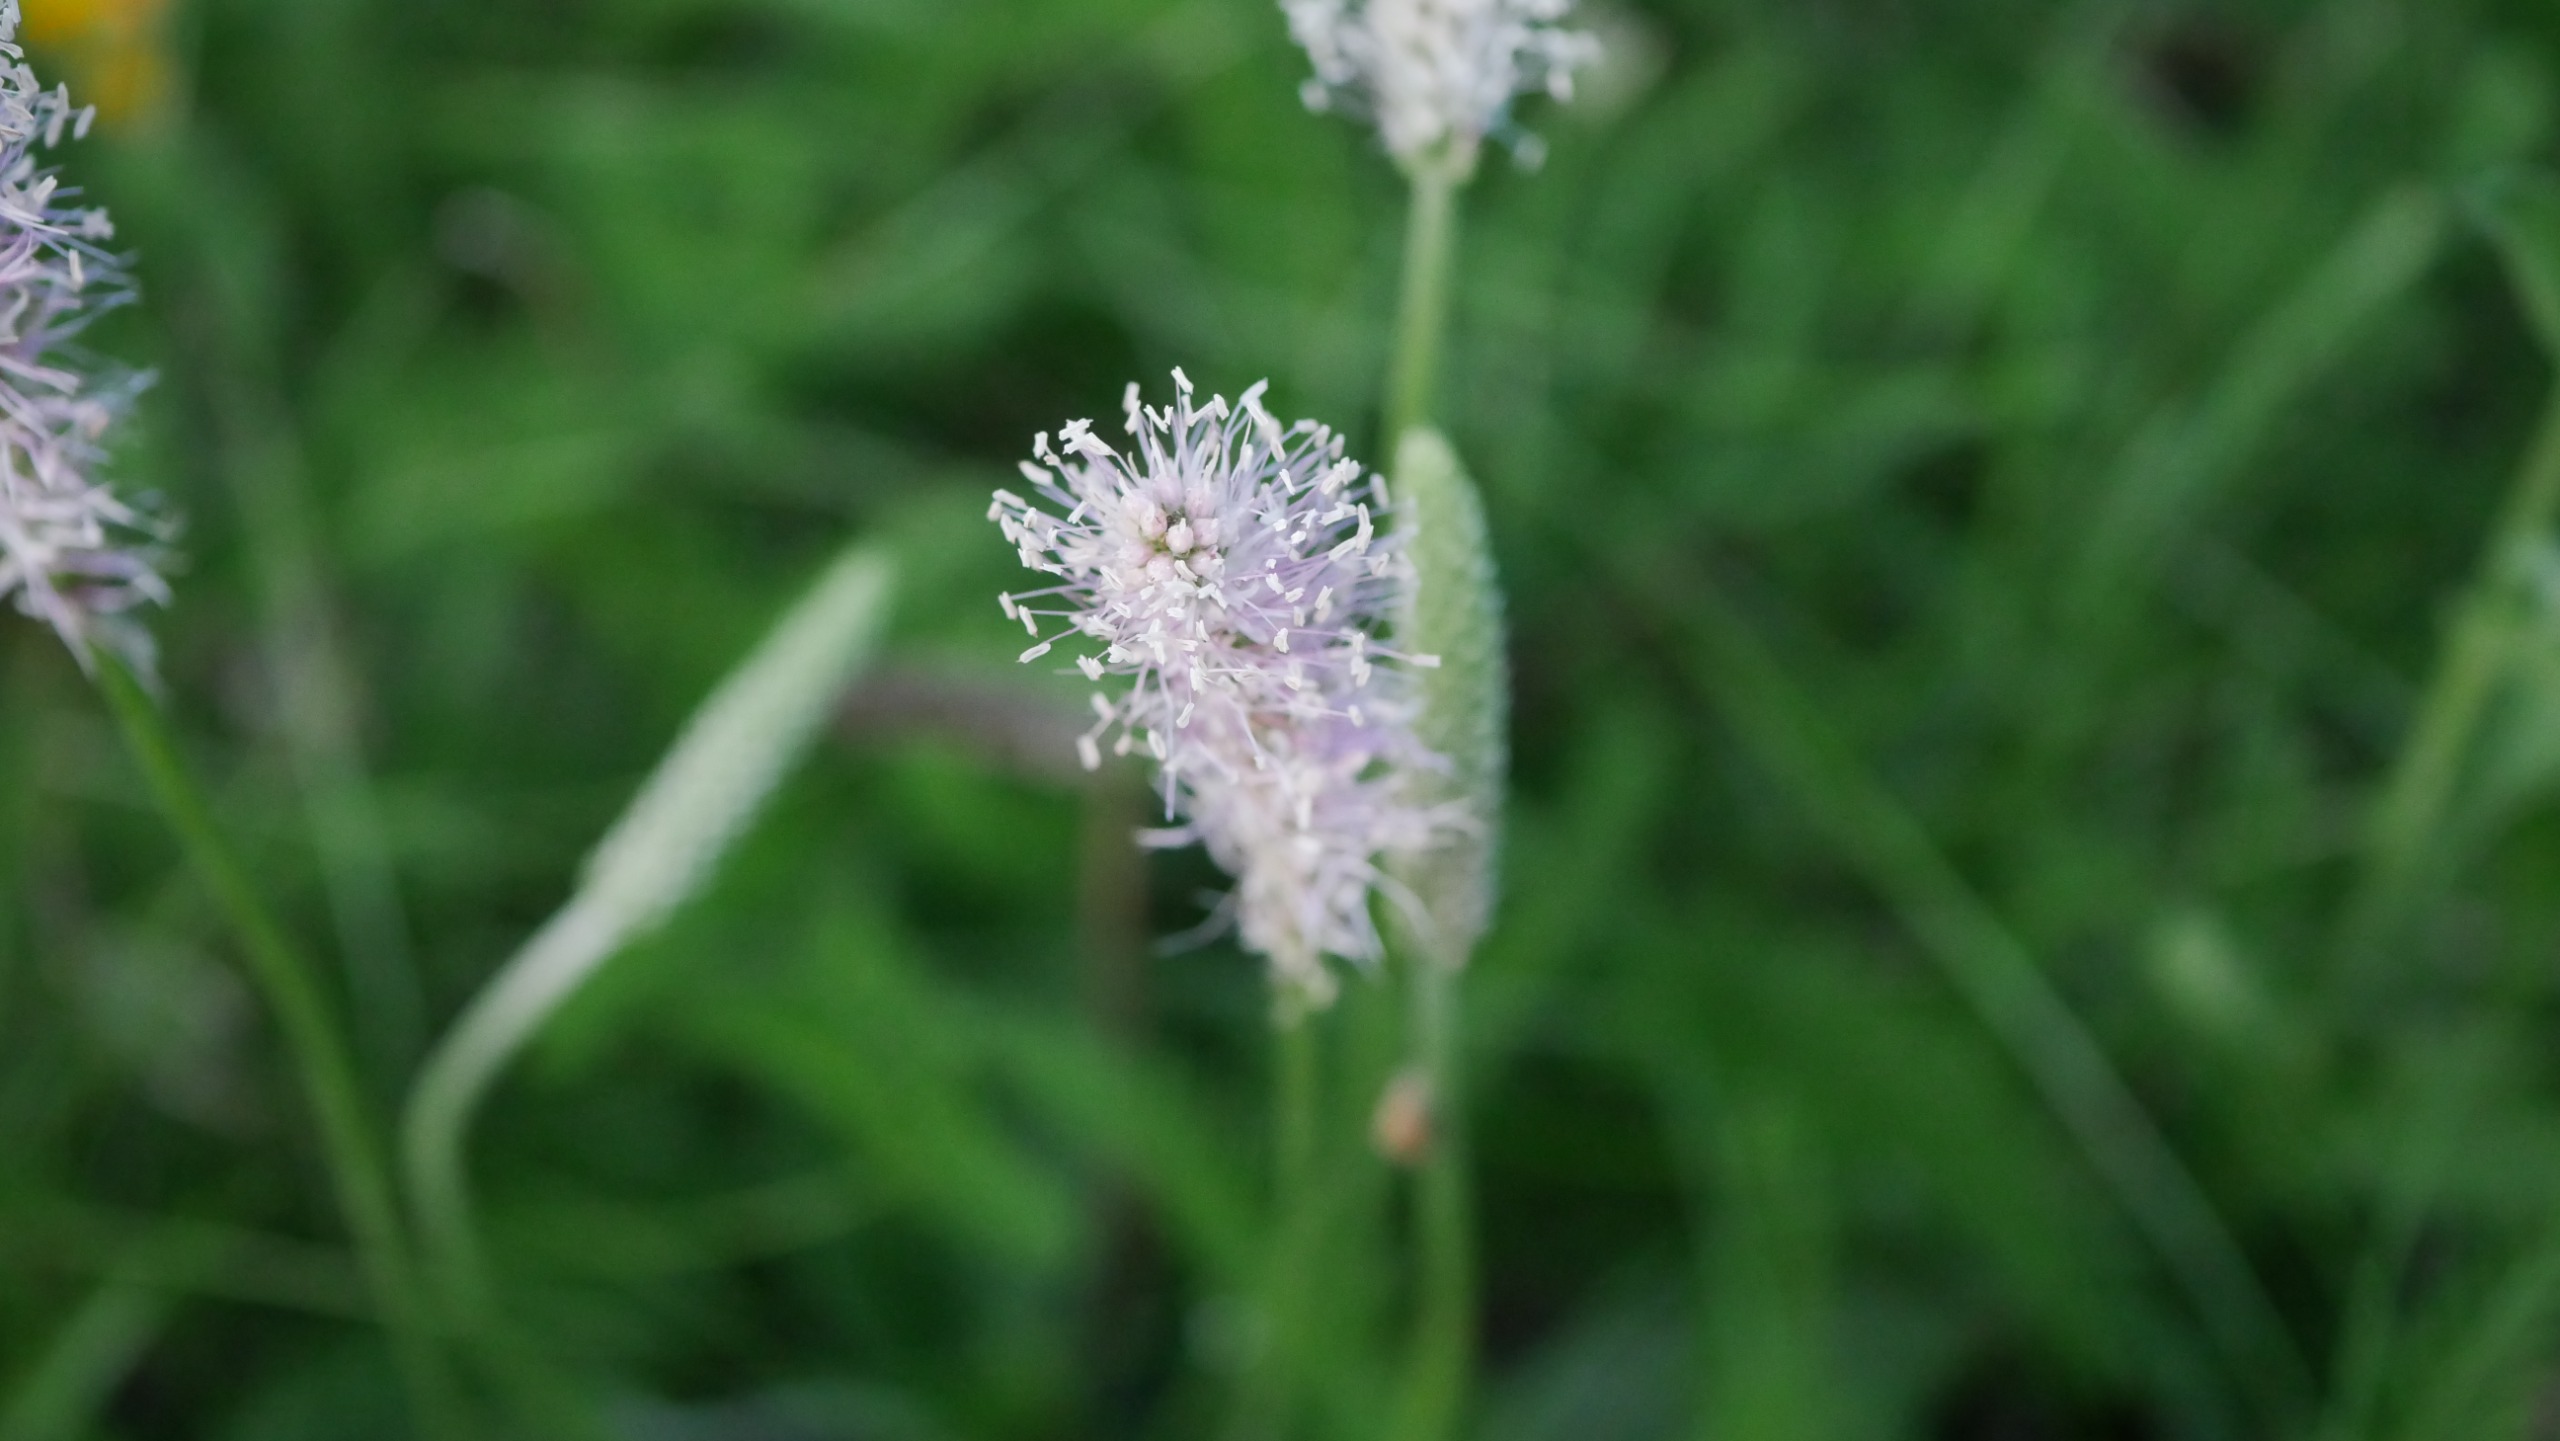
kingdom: Plantae
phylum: Tracheophyta
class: Magnoliopsida
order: Lamiales
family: Plantaginaceae
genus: Plantago
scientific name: Plantago media
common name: Dunet vejbred
